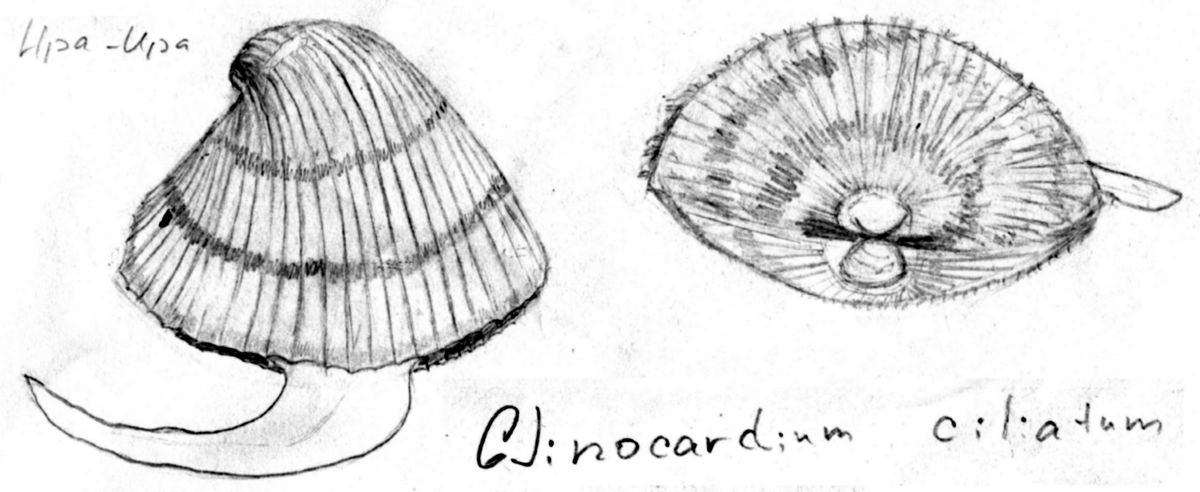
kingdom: Animalia
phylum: Mollusca
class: Bivalvia
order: Cardiida
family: Cardiidae
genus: Ciliatocardium
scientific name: Ciliatocardium ciliatum
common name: Hairy cockle
